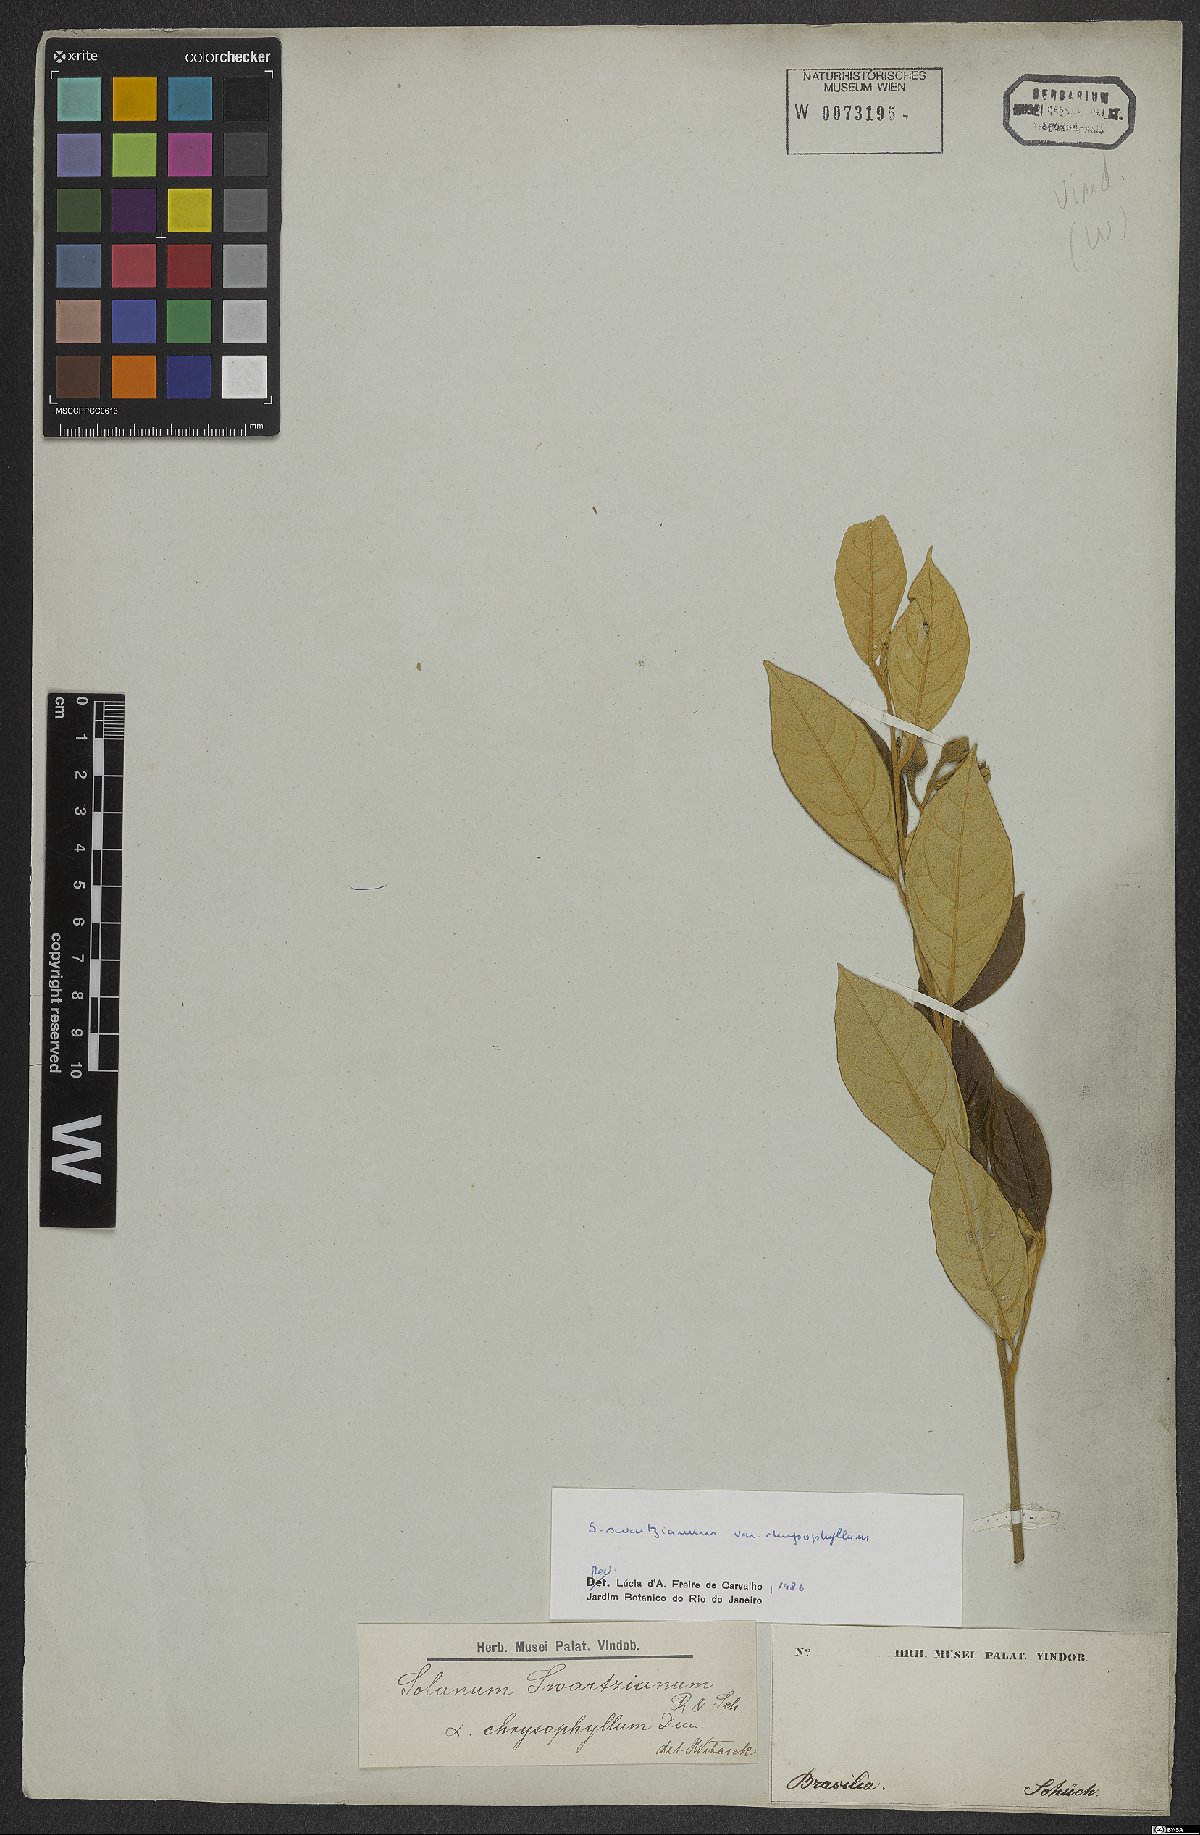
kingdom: Plantae
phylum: Tracheophyta
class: Magnoliopsida
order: Solanales
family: Solanaceae
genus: Solanum
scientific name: Solanum swartzianum
